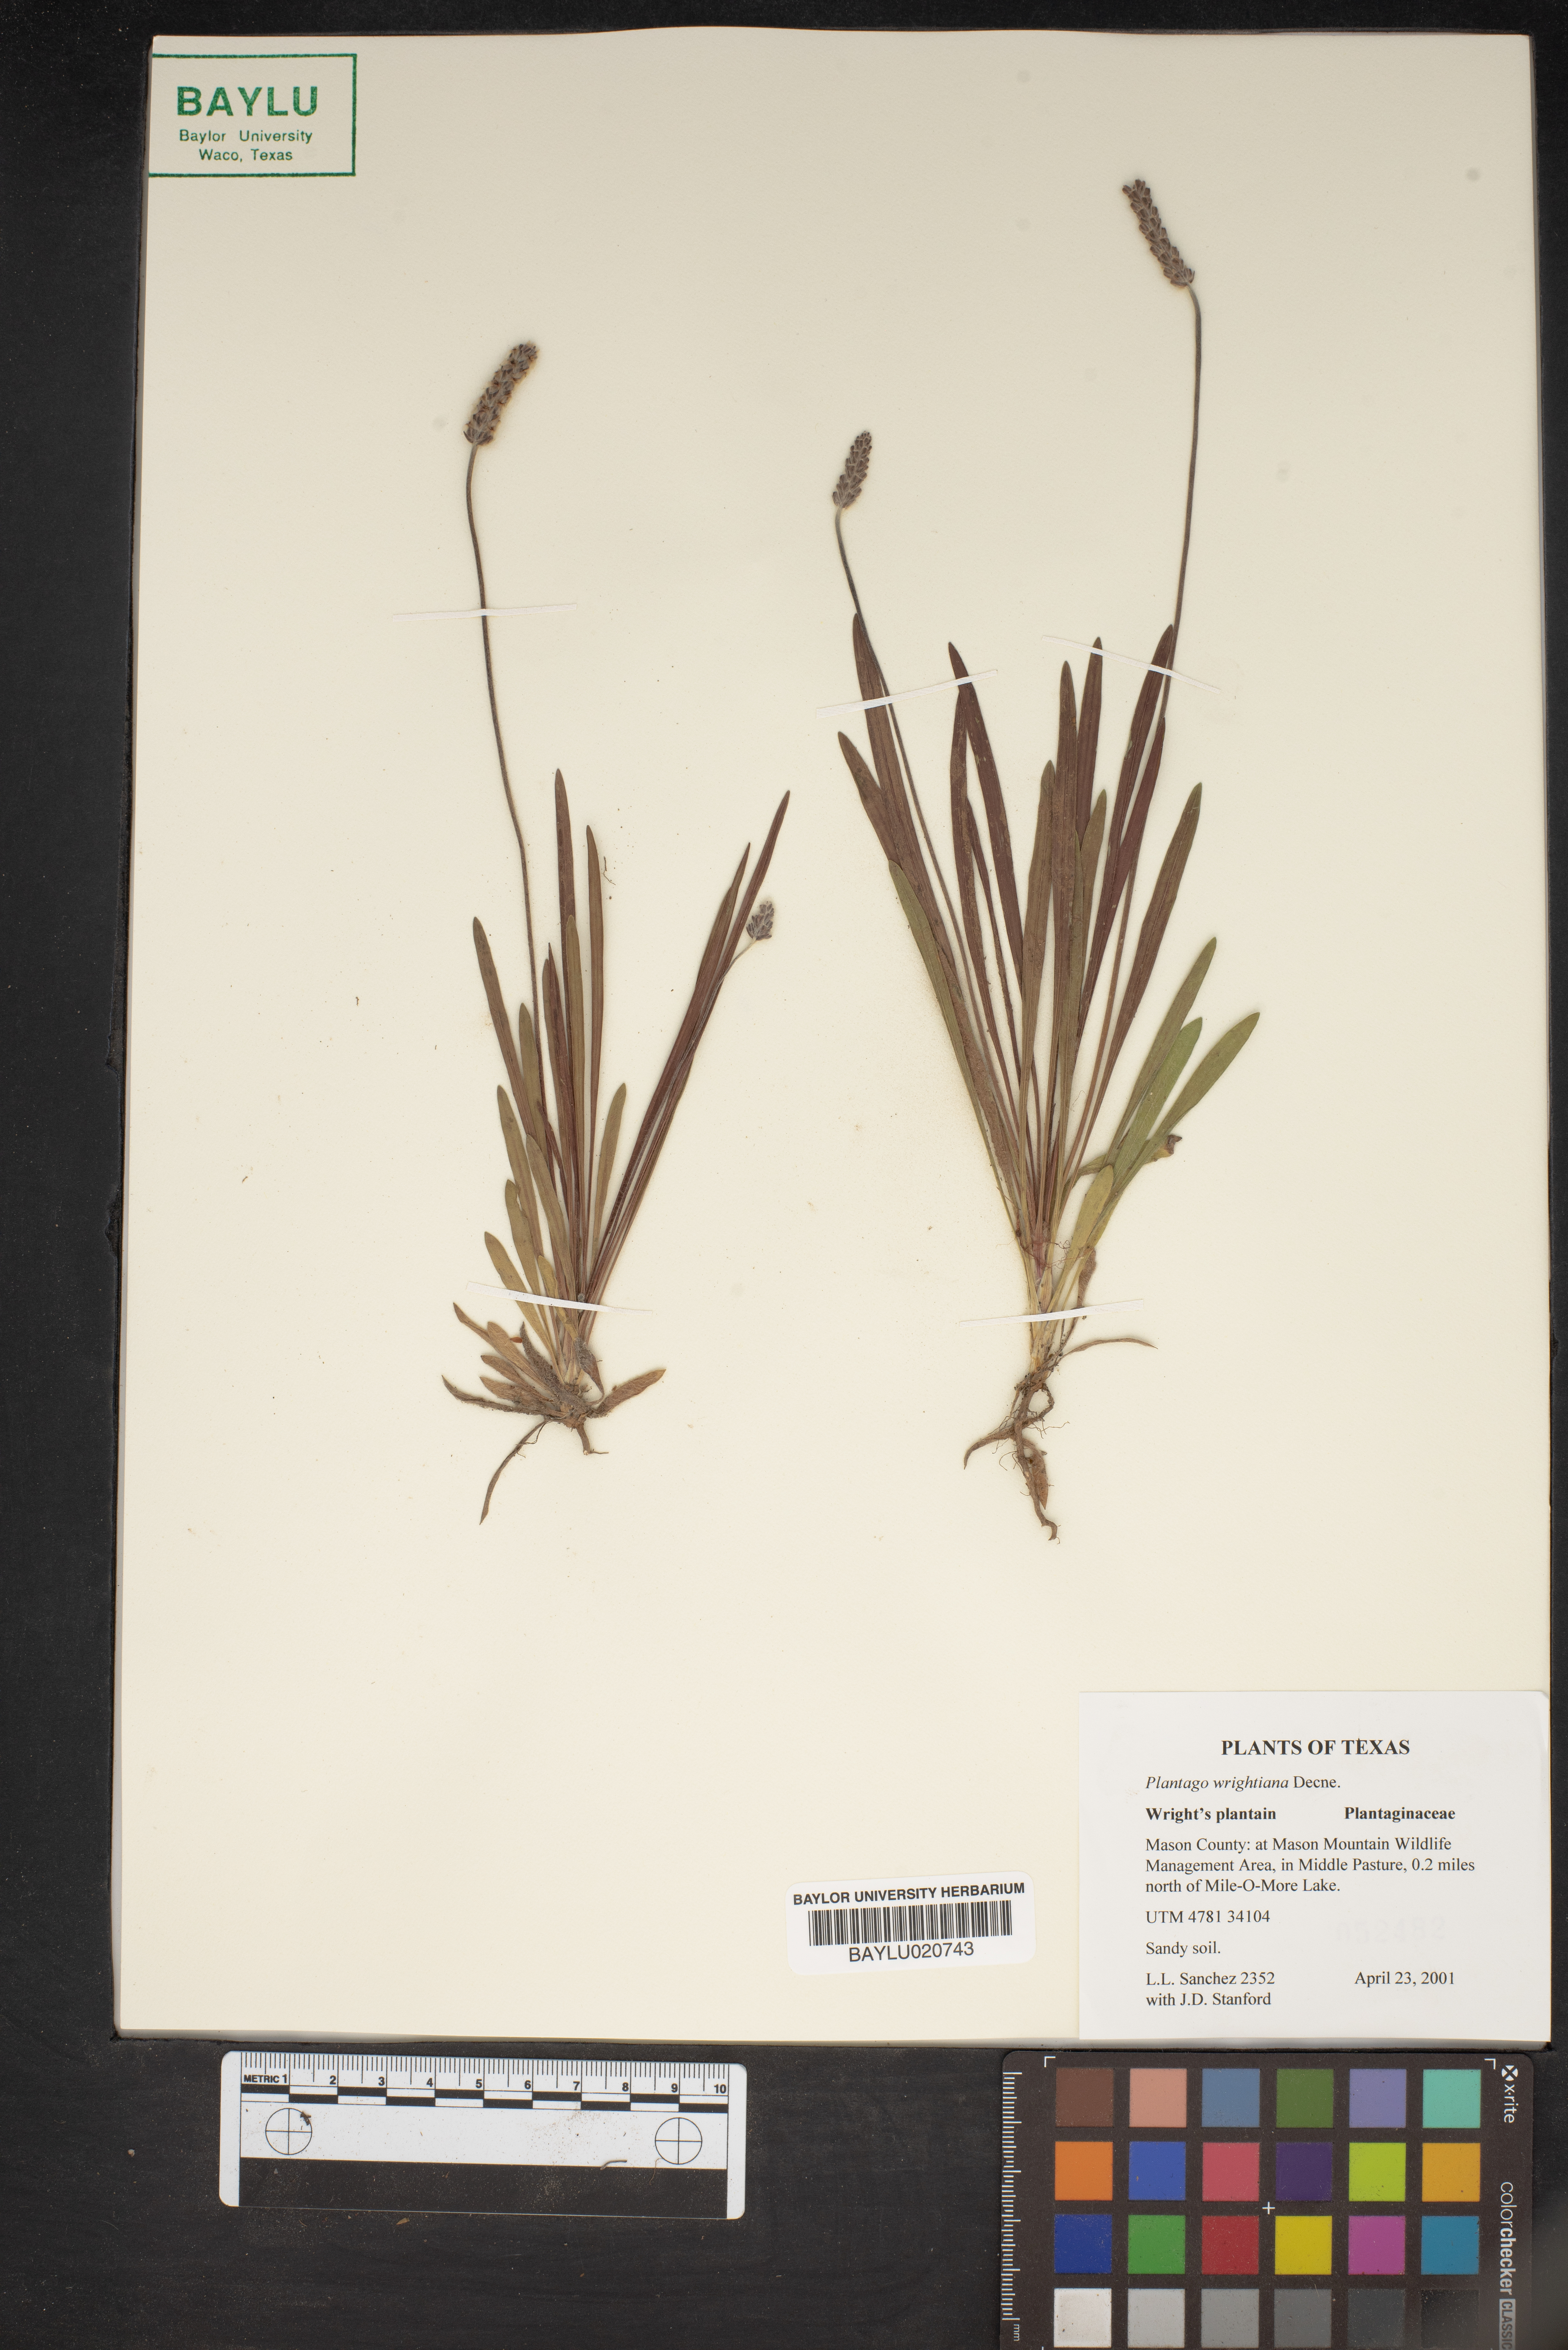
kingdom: Plantae
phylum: Tracheophyta
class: Magnoliopsida
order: Lamiales
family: Plantaginaceae
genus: Plantago
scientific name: Plantago wrightiana
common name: Wright's plantain
